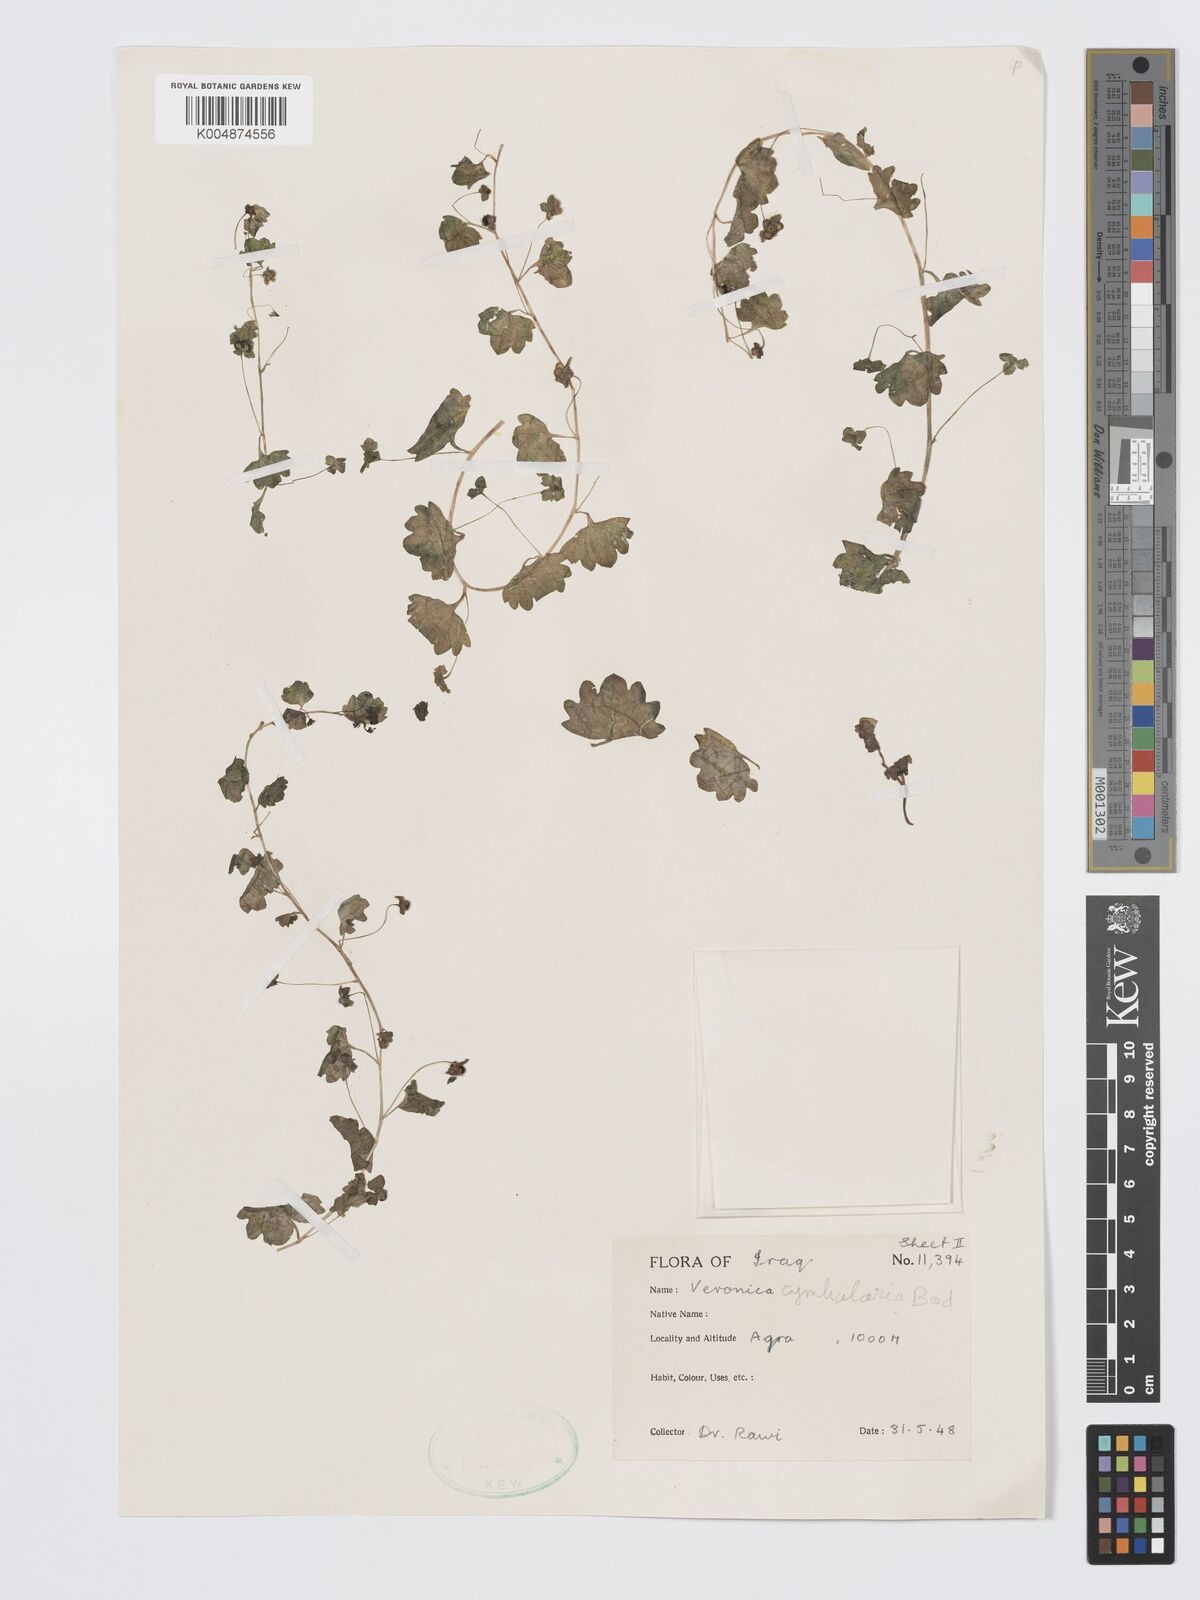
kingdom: Plantae
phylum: Tracheophyta
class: Magnoliopsida
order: Lamiales
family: Plantaginaceae
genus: Veronica
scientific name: Veronica
